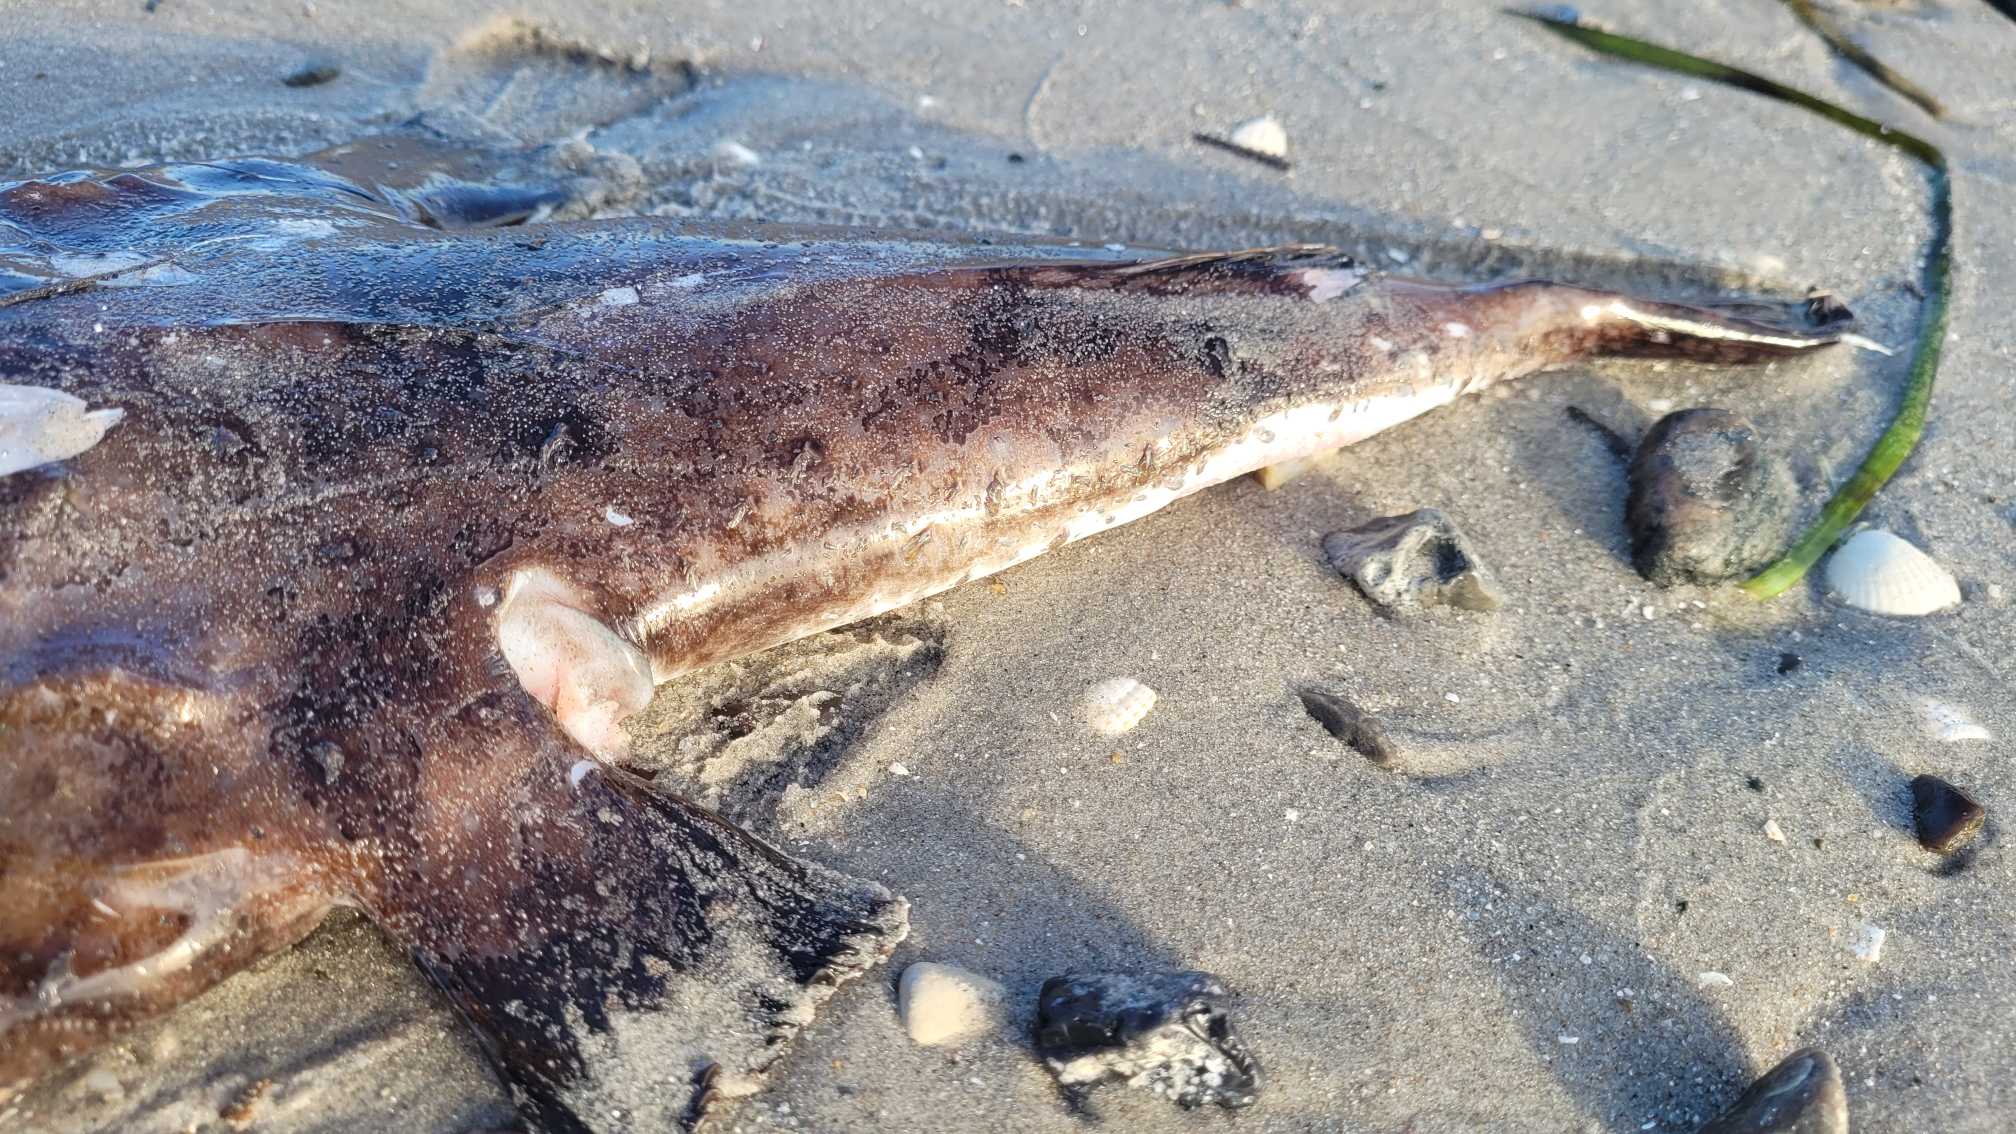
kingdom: Animalia
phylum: Chordata
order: Lophiiformes
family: Lophiidae
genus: Lophius
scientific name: Lophius piscatorius
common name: Havtaske
